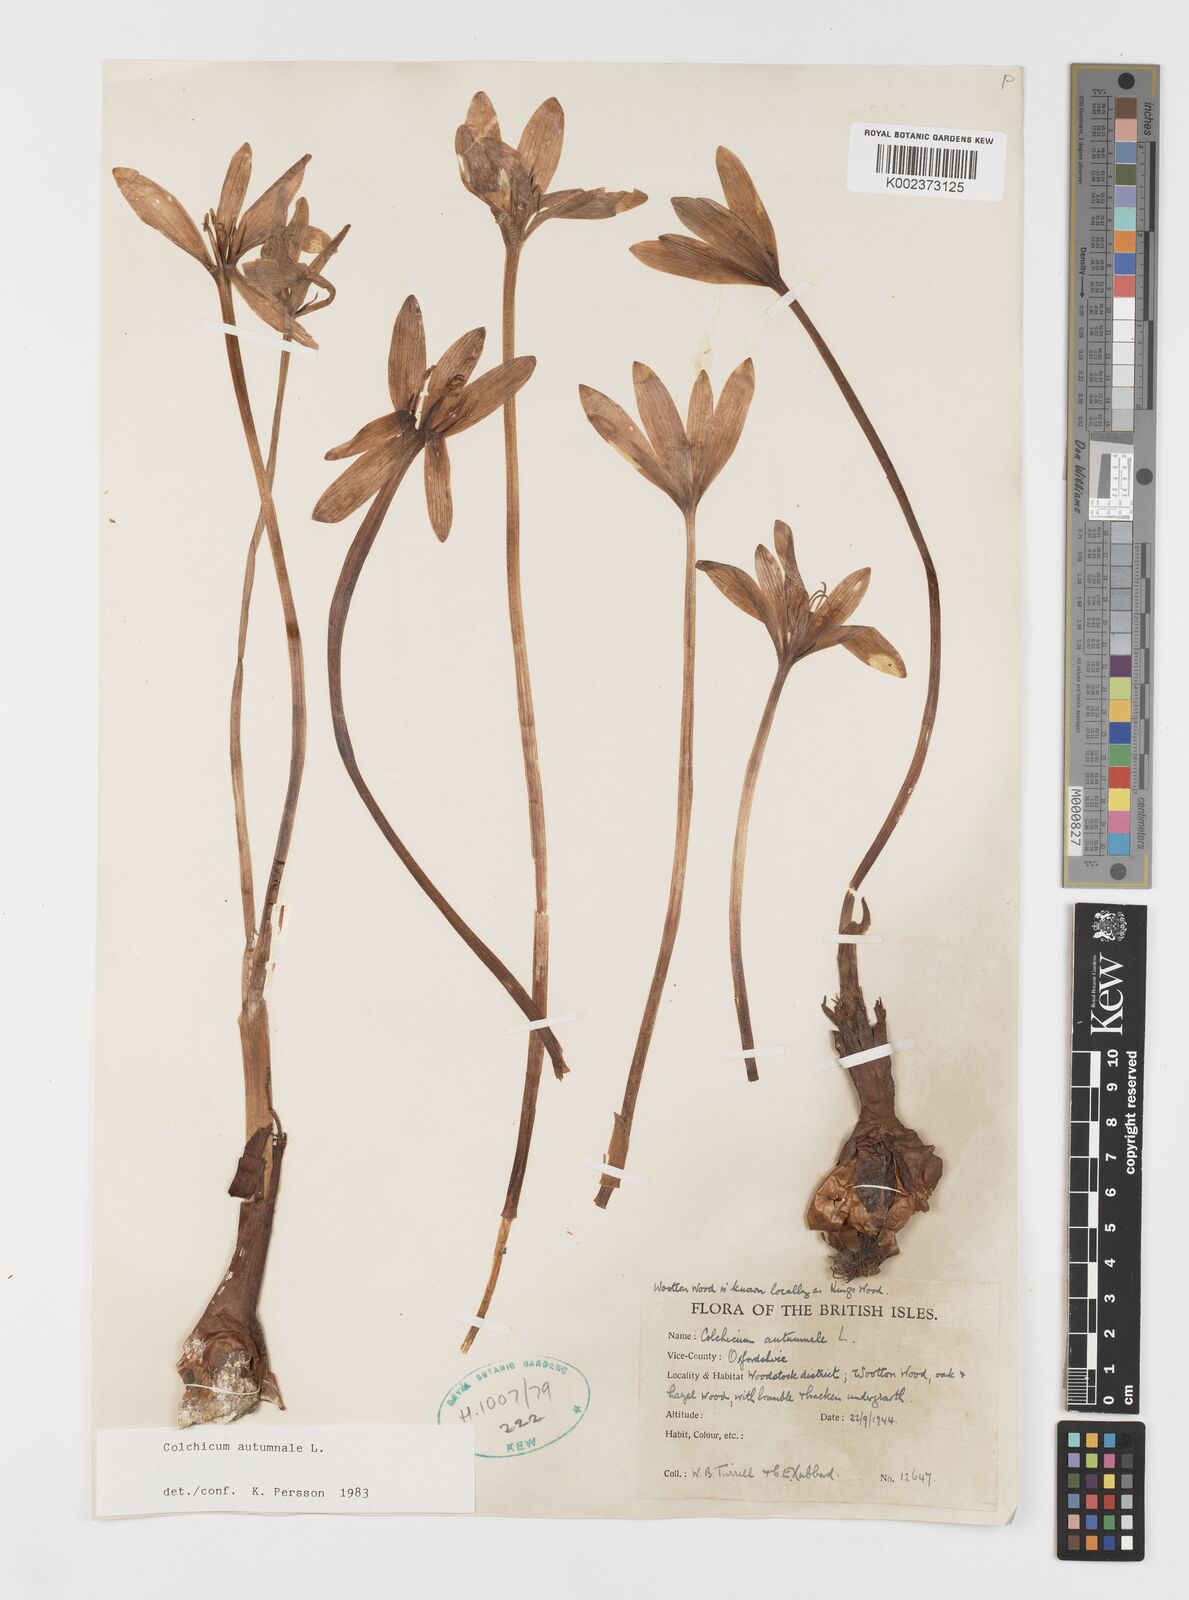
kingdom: Plantae
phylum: Tracheophyta
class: Liliopsida
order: Liliales
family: Colchicaceae
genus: Colchicum
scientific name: Colchicum autumnale
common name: Autumn crocus
